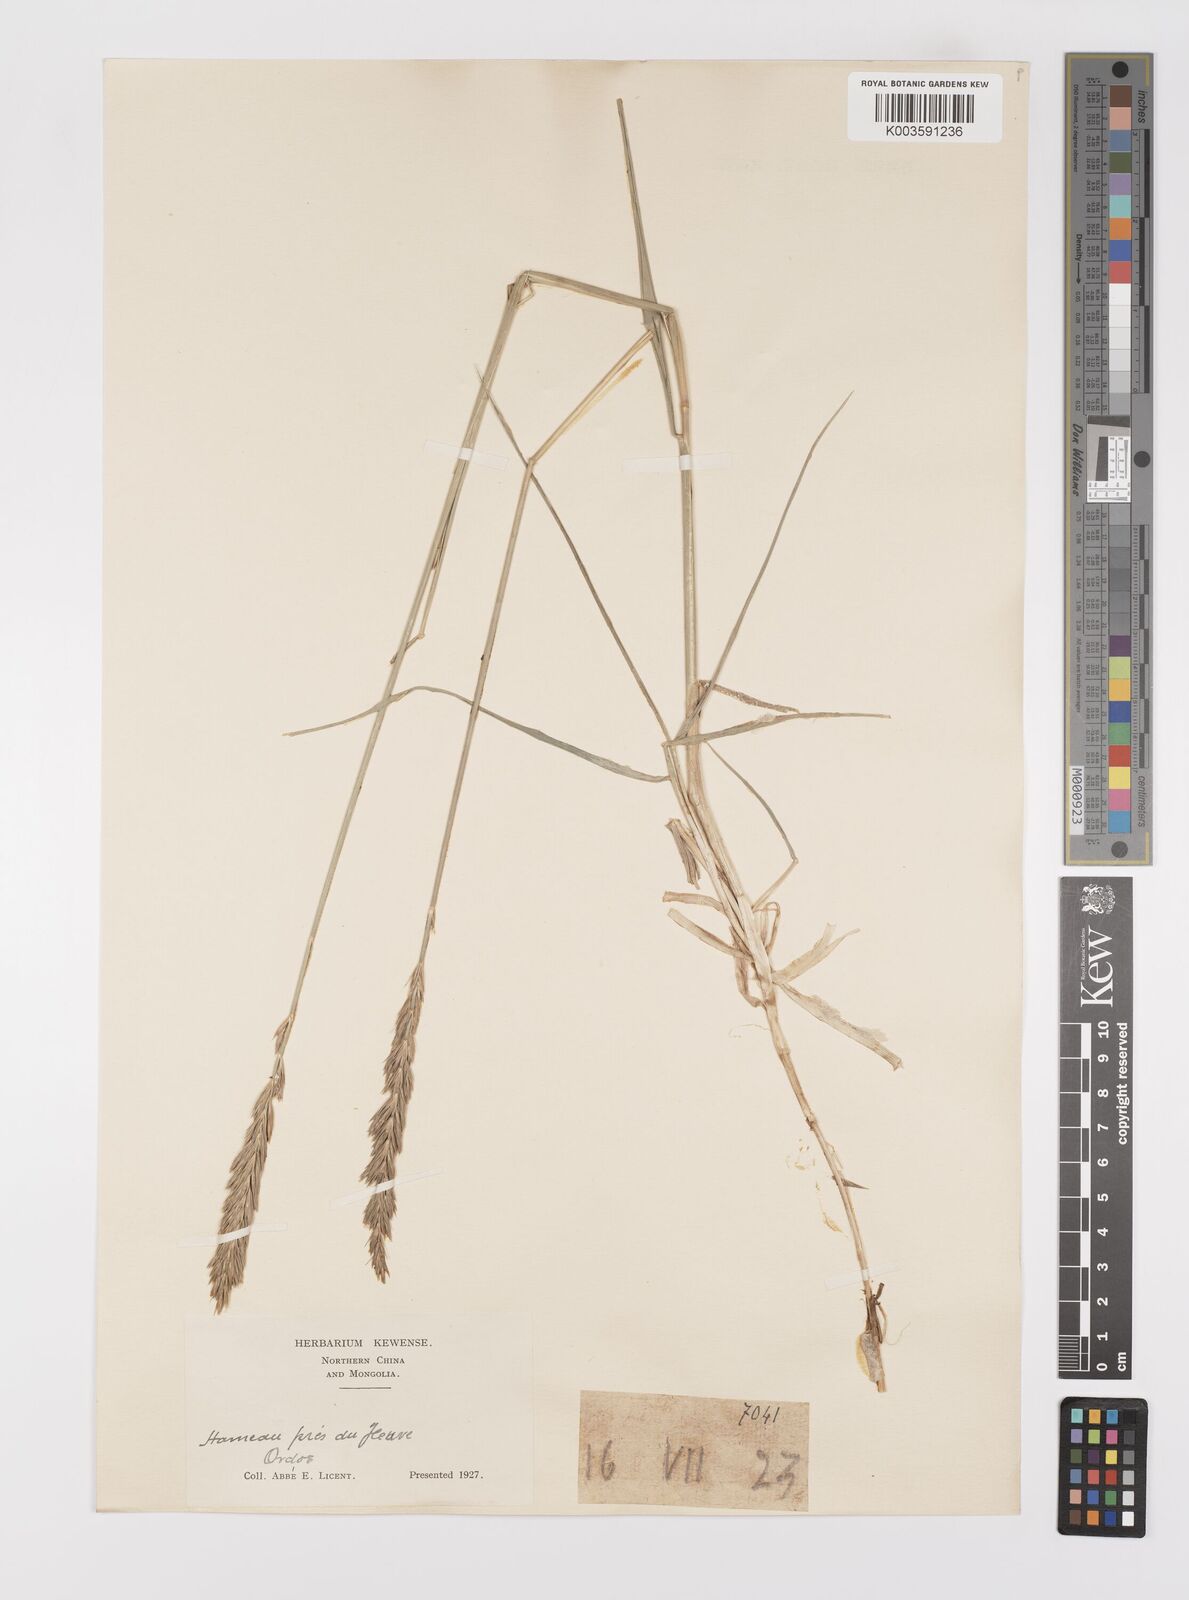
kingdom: Plantae
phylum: Tracheophyta
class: Liliopsida
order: Poales
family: Poaceae
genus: Leymus
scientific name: Leymus chinensis
